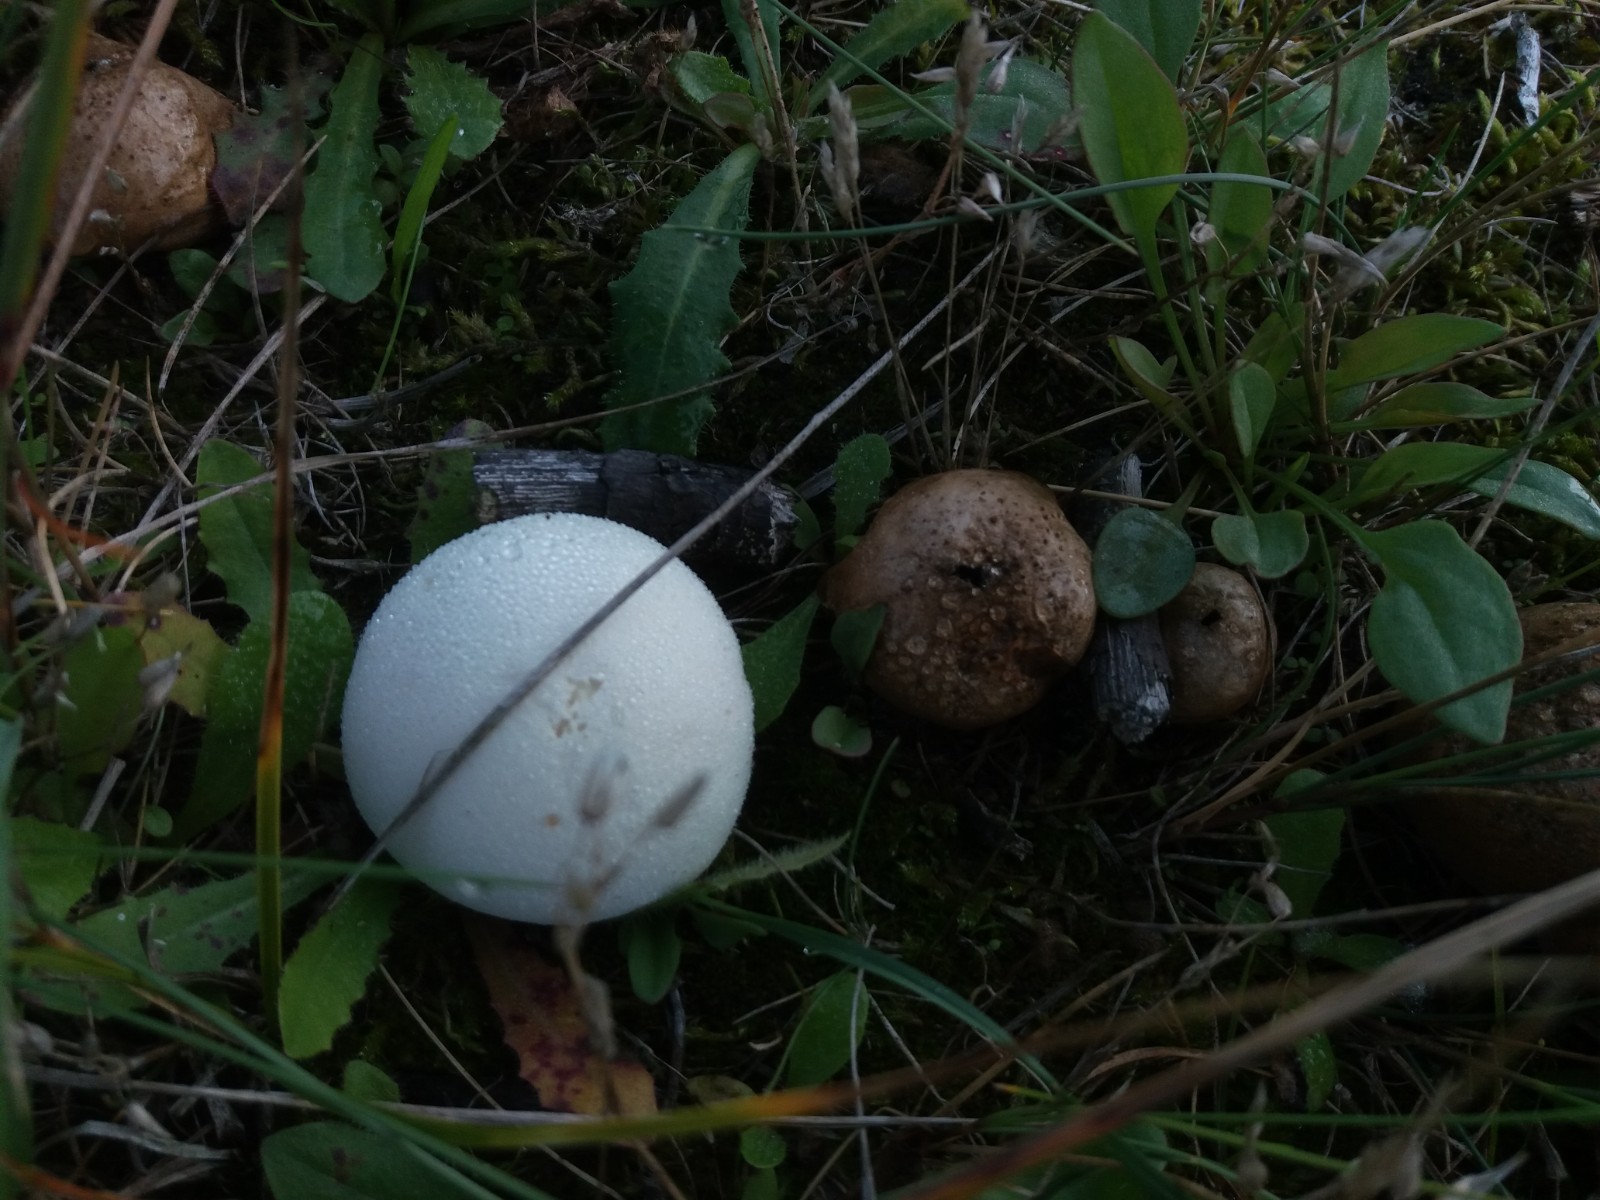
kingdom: Fungi
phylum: Basidiomycota
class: Agaricomycetes
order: Agaricales
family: Lycoperdaceae
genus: Bovista
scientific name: Bovista aestivalis
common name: klit-bovist
